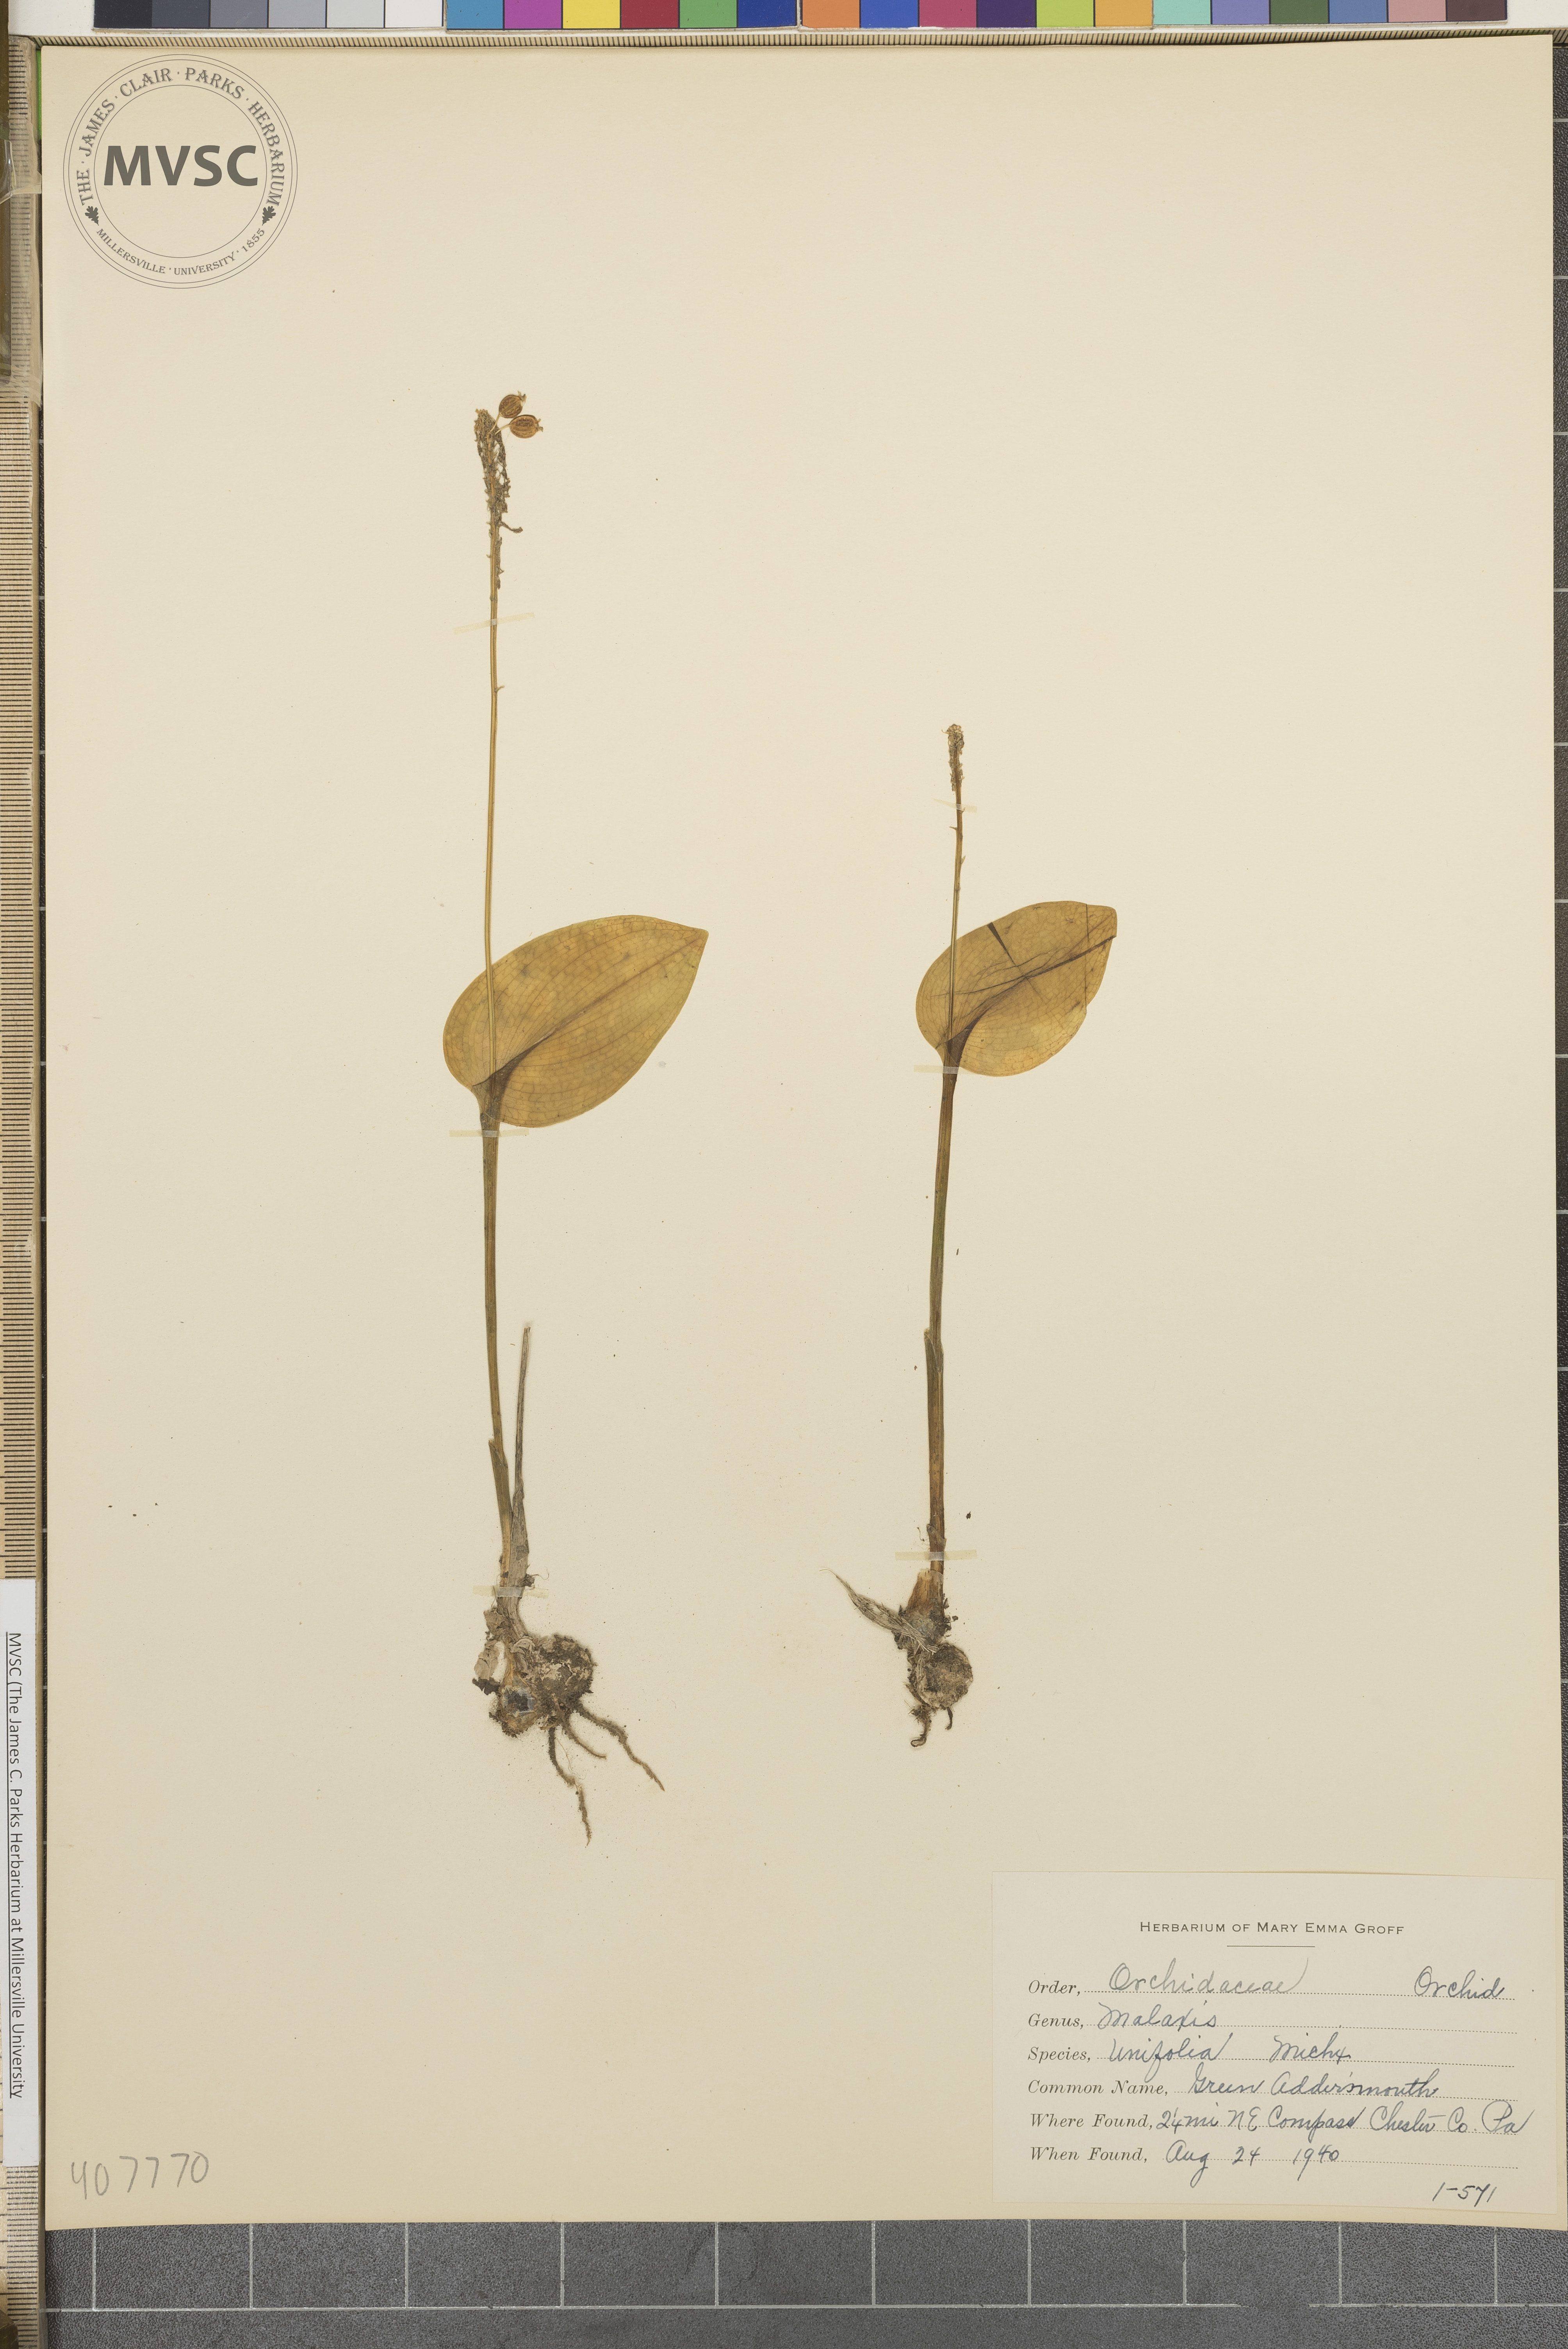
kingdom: Plantae
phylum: Tracheophyta
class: Liliopsida
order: Asparagales
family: Orchidaceae
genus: Malaxis
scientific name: Malaxis unifolia
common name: Green Adder's-mouth
